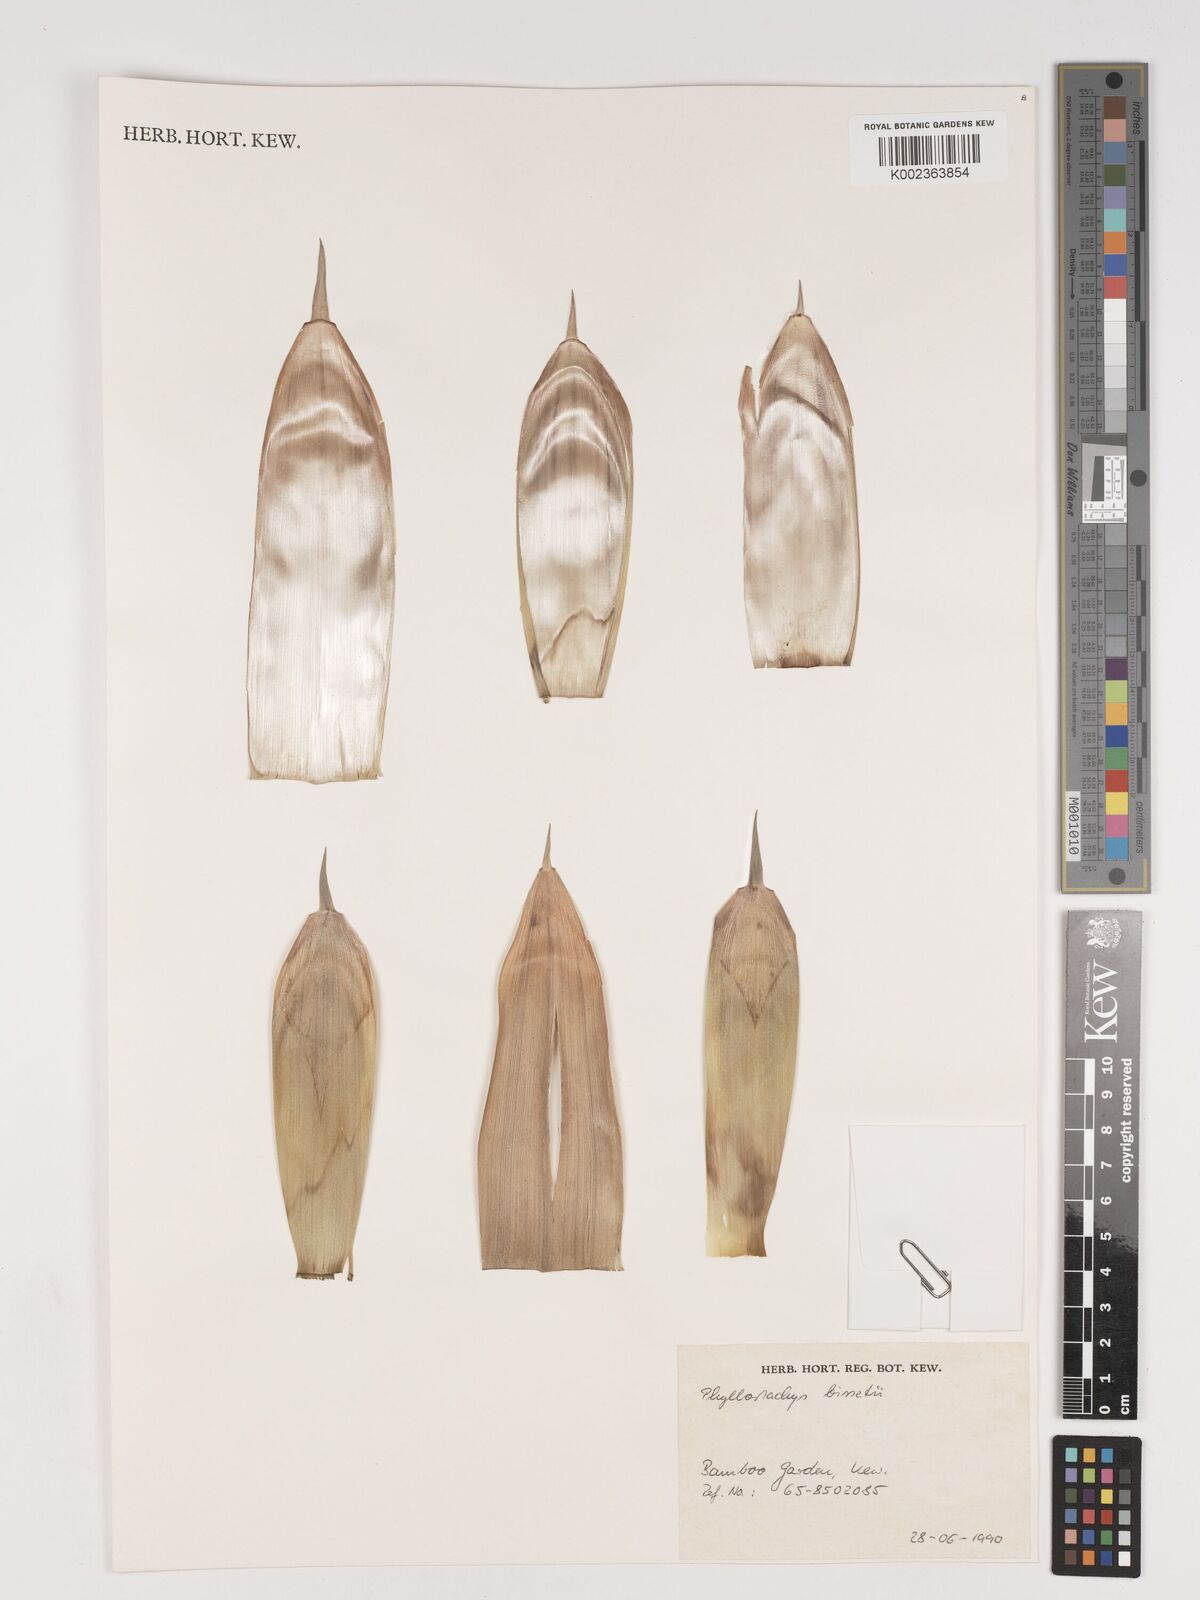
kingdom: Plantae
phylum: Tracheophyta
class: Liliopsida
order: Poales
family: Poaceae
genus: Phyllostachys
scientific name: Phyllostachys bissetii
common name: Bamboo
